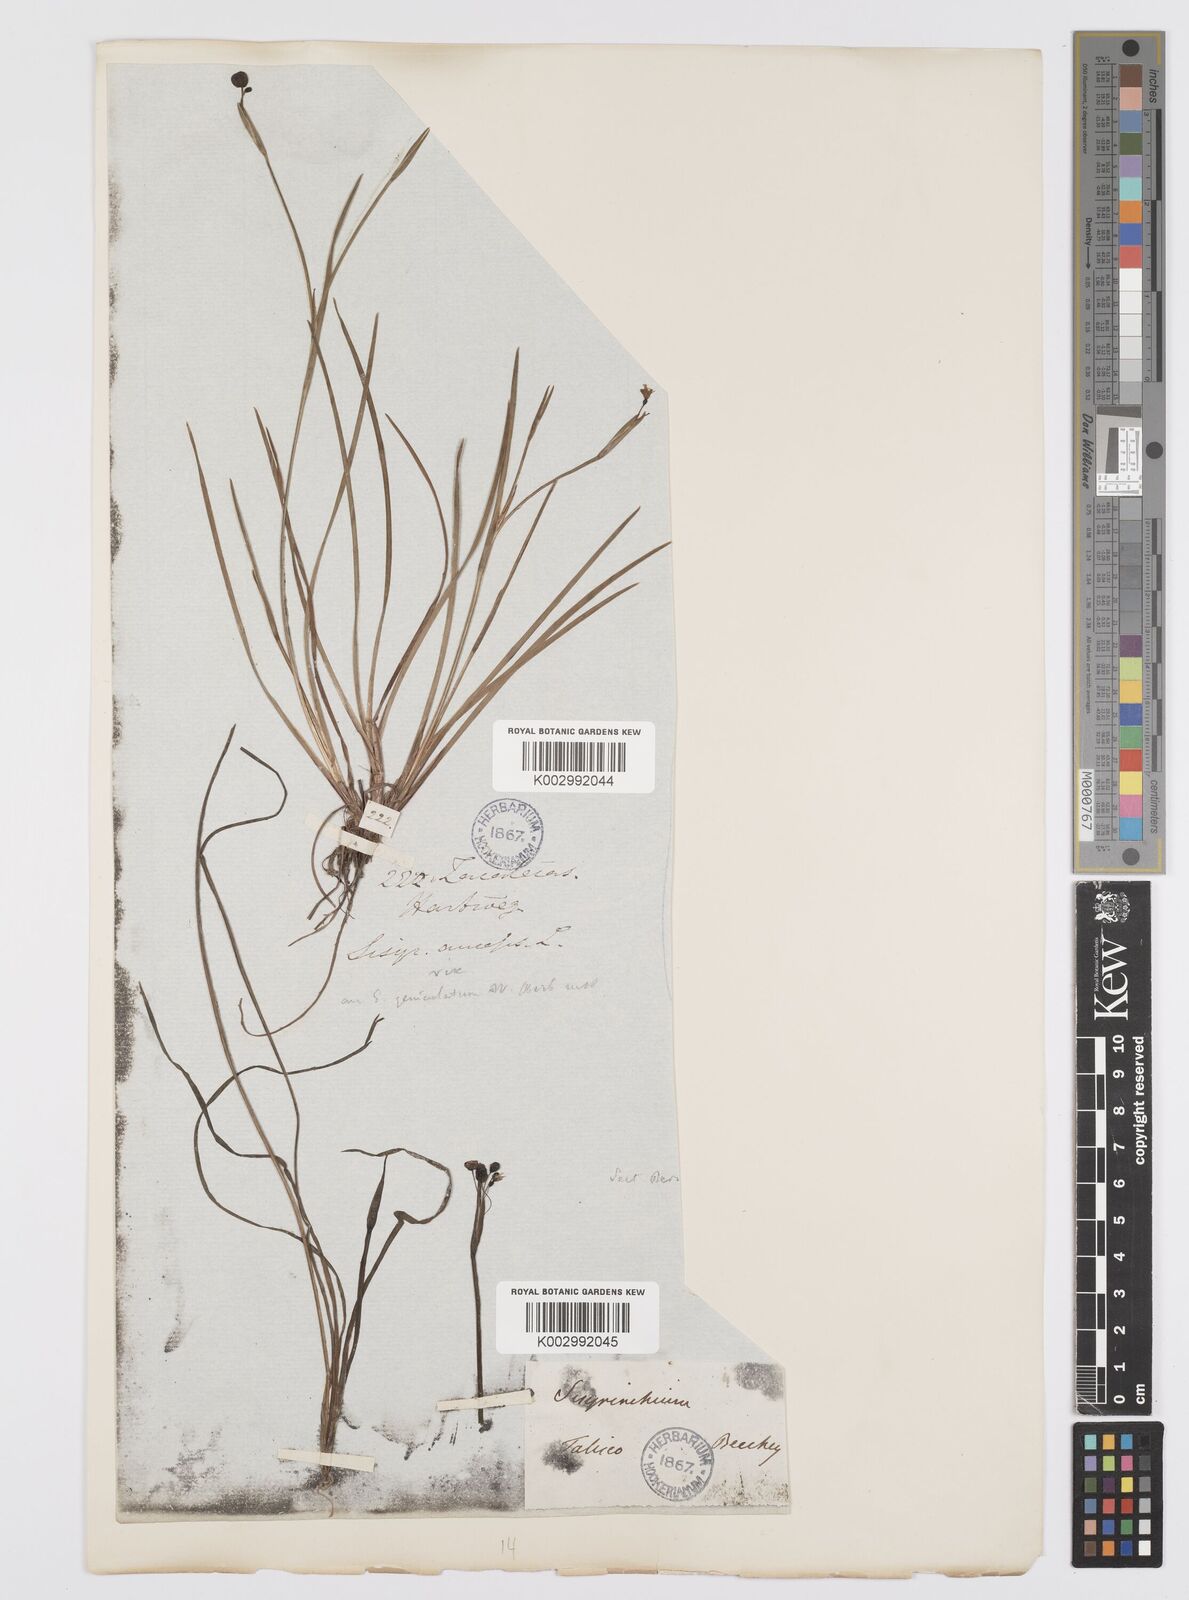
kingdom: Plantae
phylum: Tracheophyta
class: Liliopsida
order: Asparagales
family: Iridaceae
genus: Sisyrinchium
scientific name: Sisyrinchium bermudiana
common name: Blue-eyed-grass
